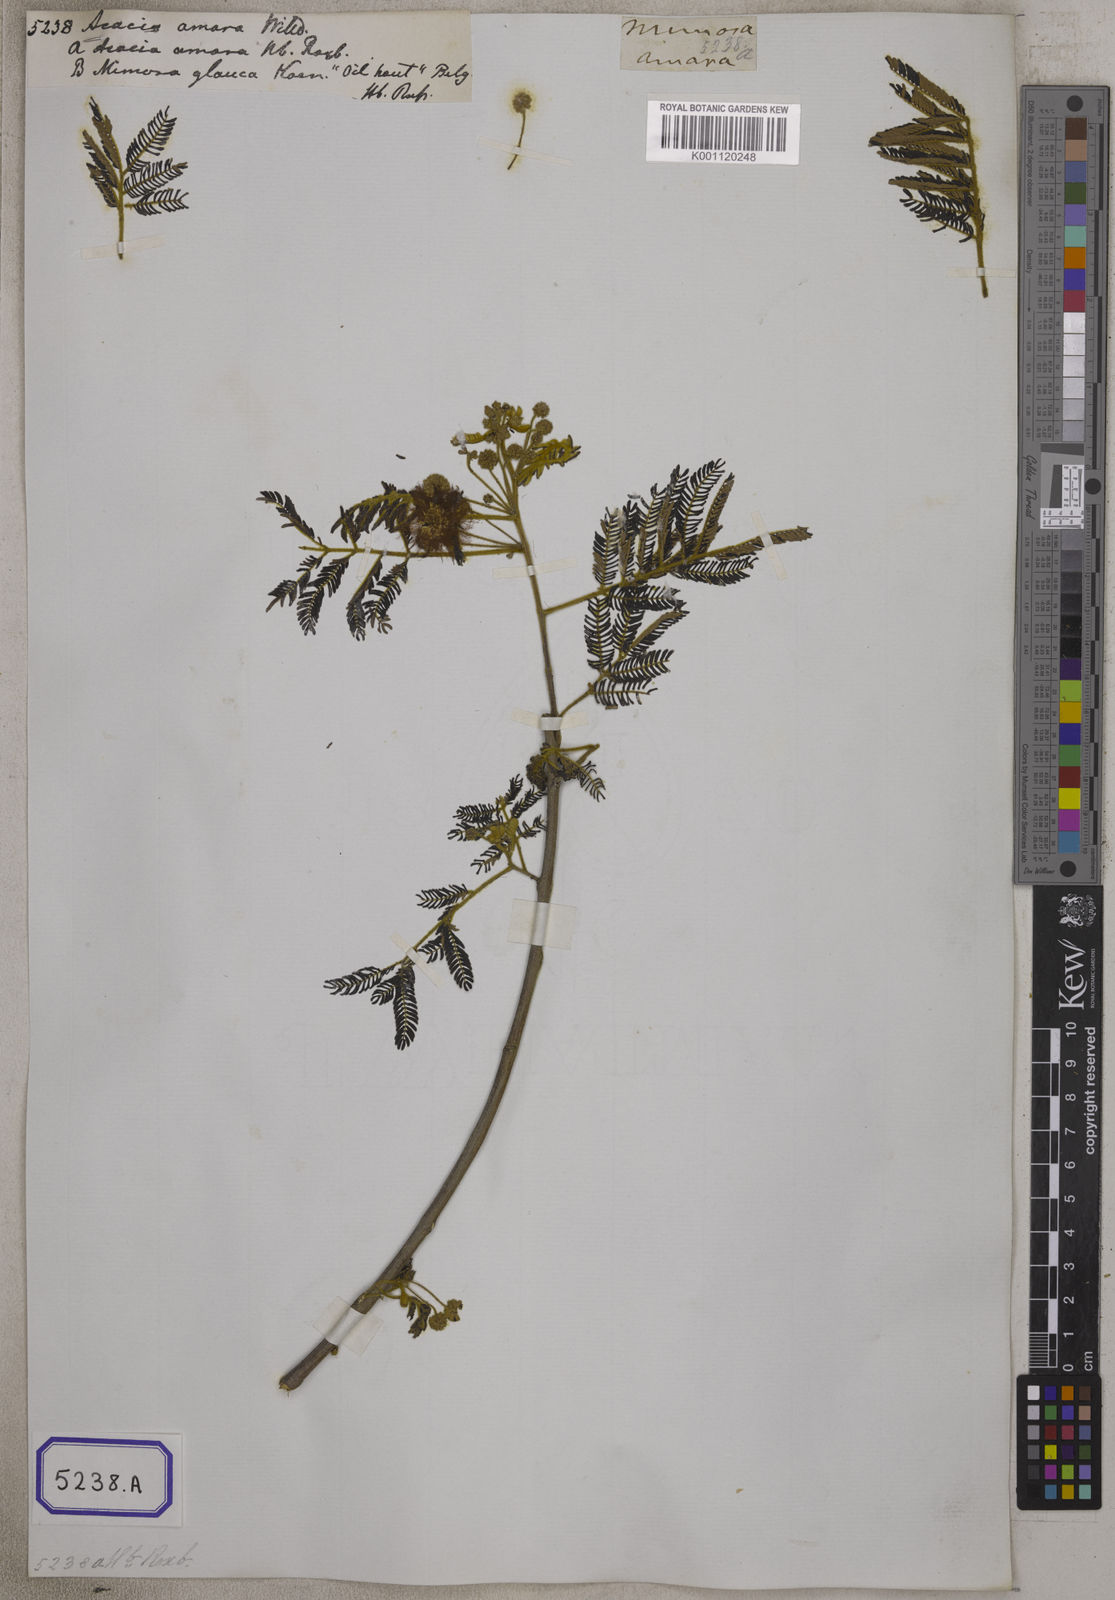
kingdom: Plantae
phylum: Tracheophyta
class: Magnoliopsida
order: Fabales
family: Fabaceae
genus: Albizia
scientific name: Albizia amara
